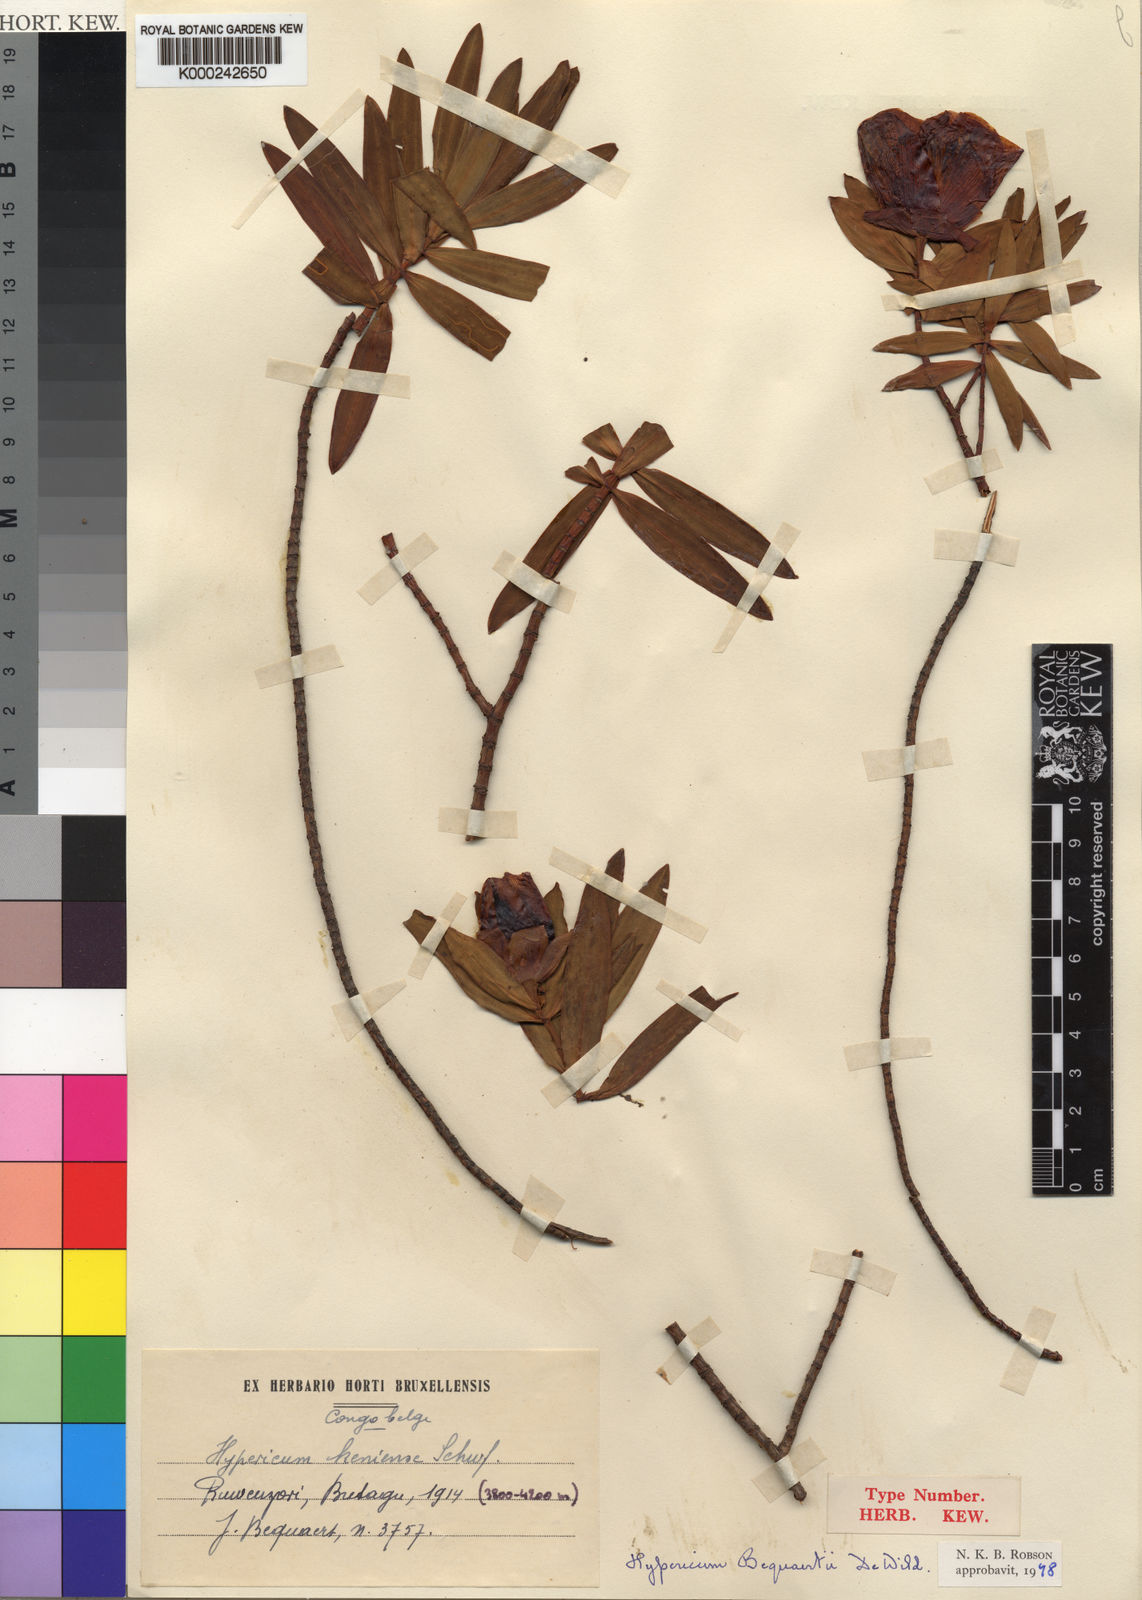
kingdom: Plantae
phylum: Tracheophyta
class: Magnoliopsida
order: Malpighiales
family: Hypericaceae
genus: Hypericum
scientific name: Hypericum bequaertii
